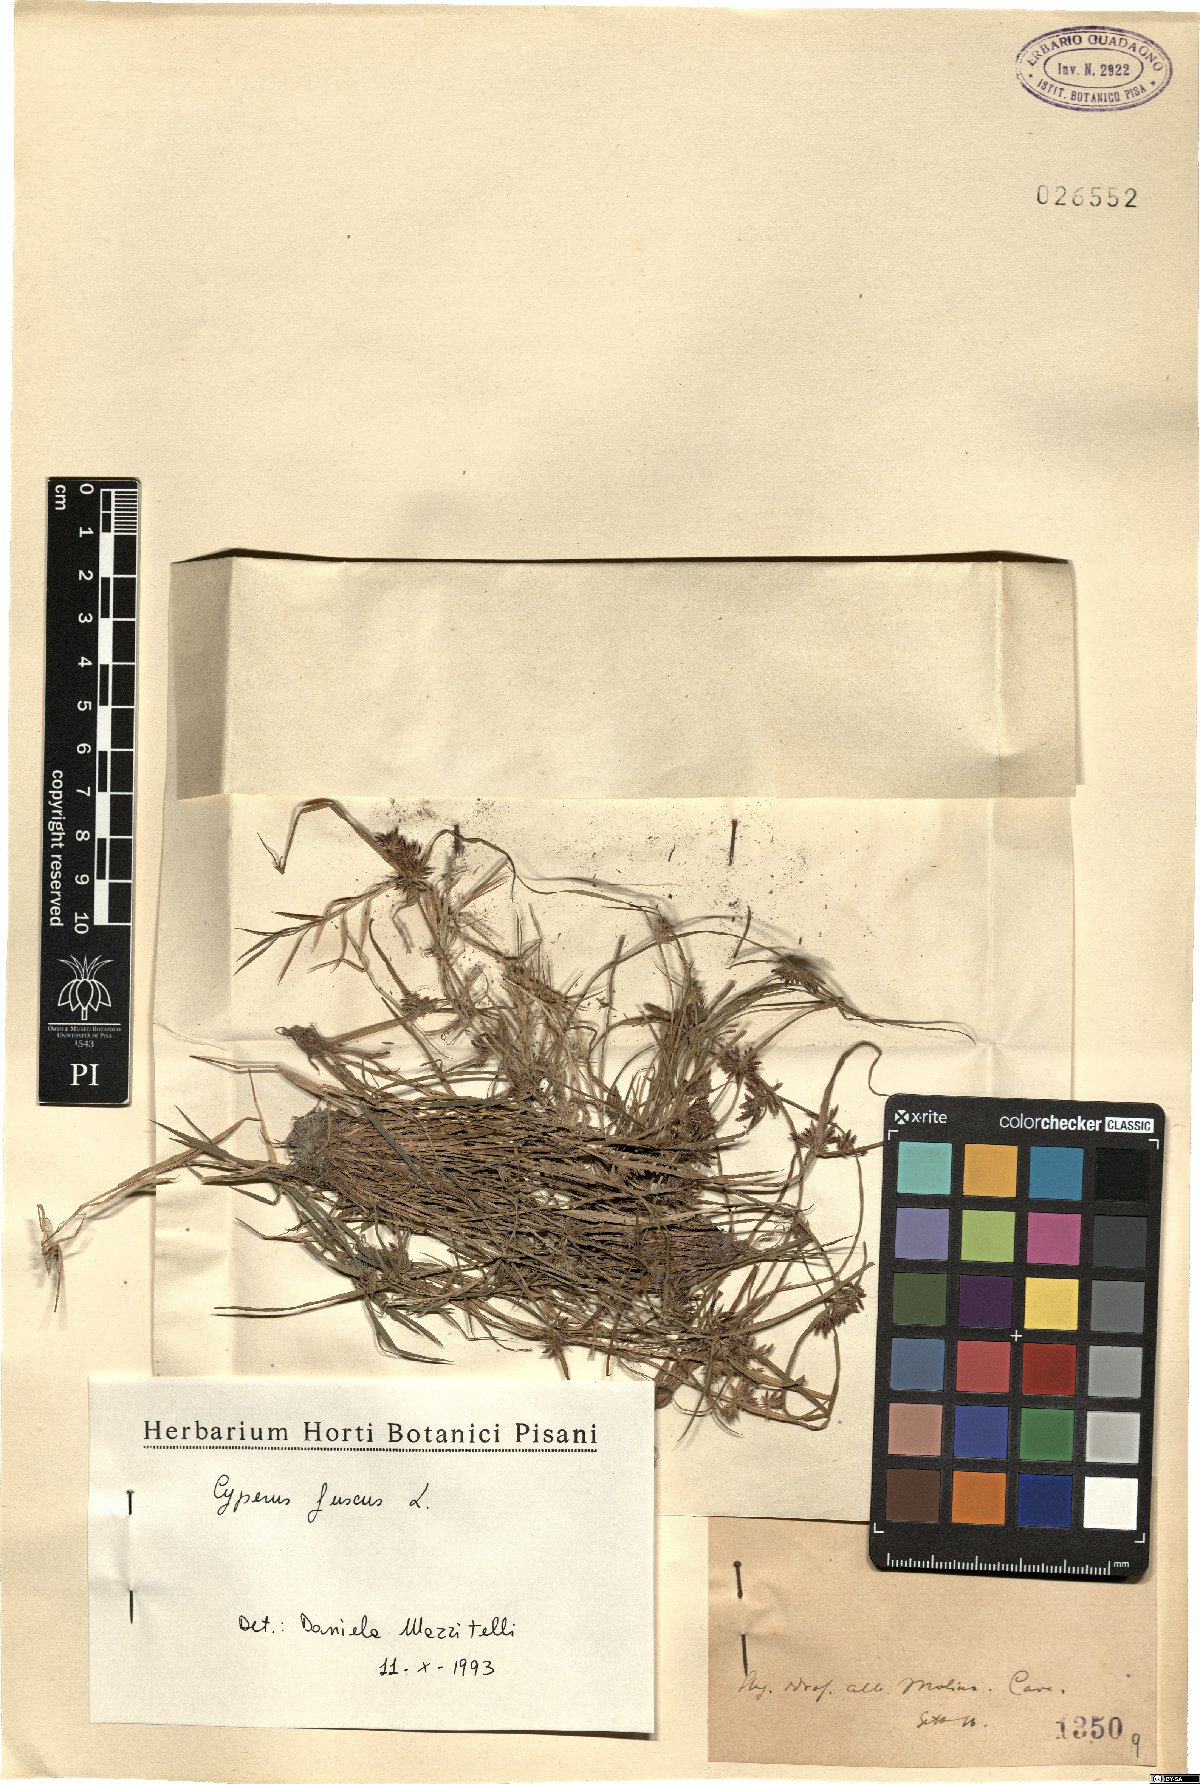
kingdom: Plantae
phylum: Tracheophyta
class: Liliopsida
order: Poales
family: Cyperaceae
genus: Cyperus
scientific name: Cyperus fuscus
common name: Brown galingale
